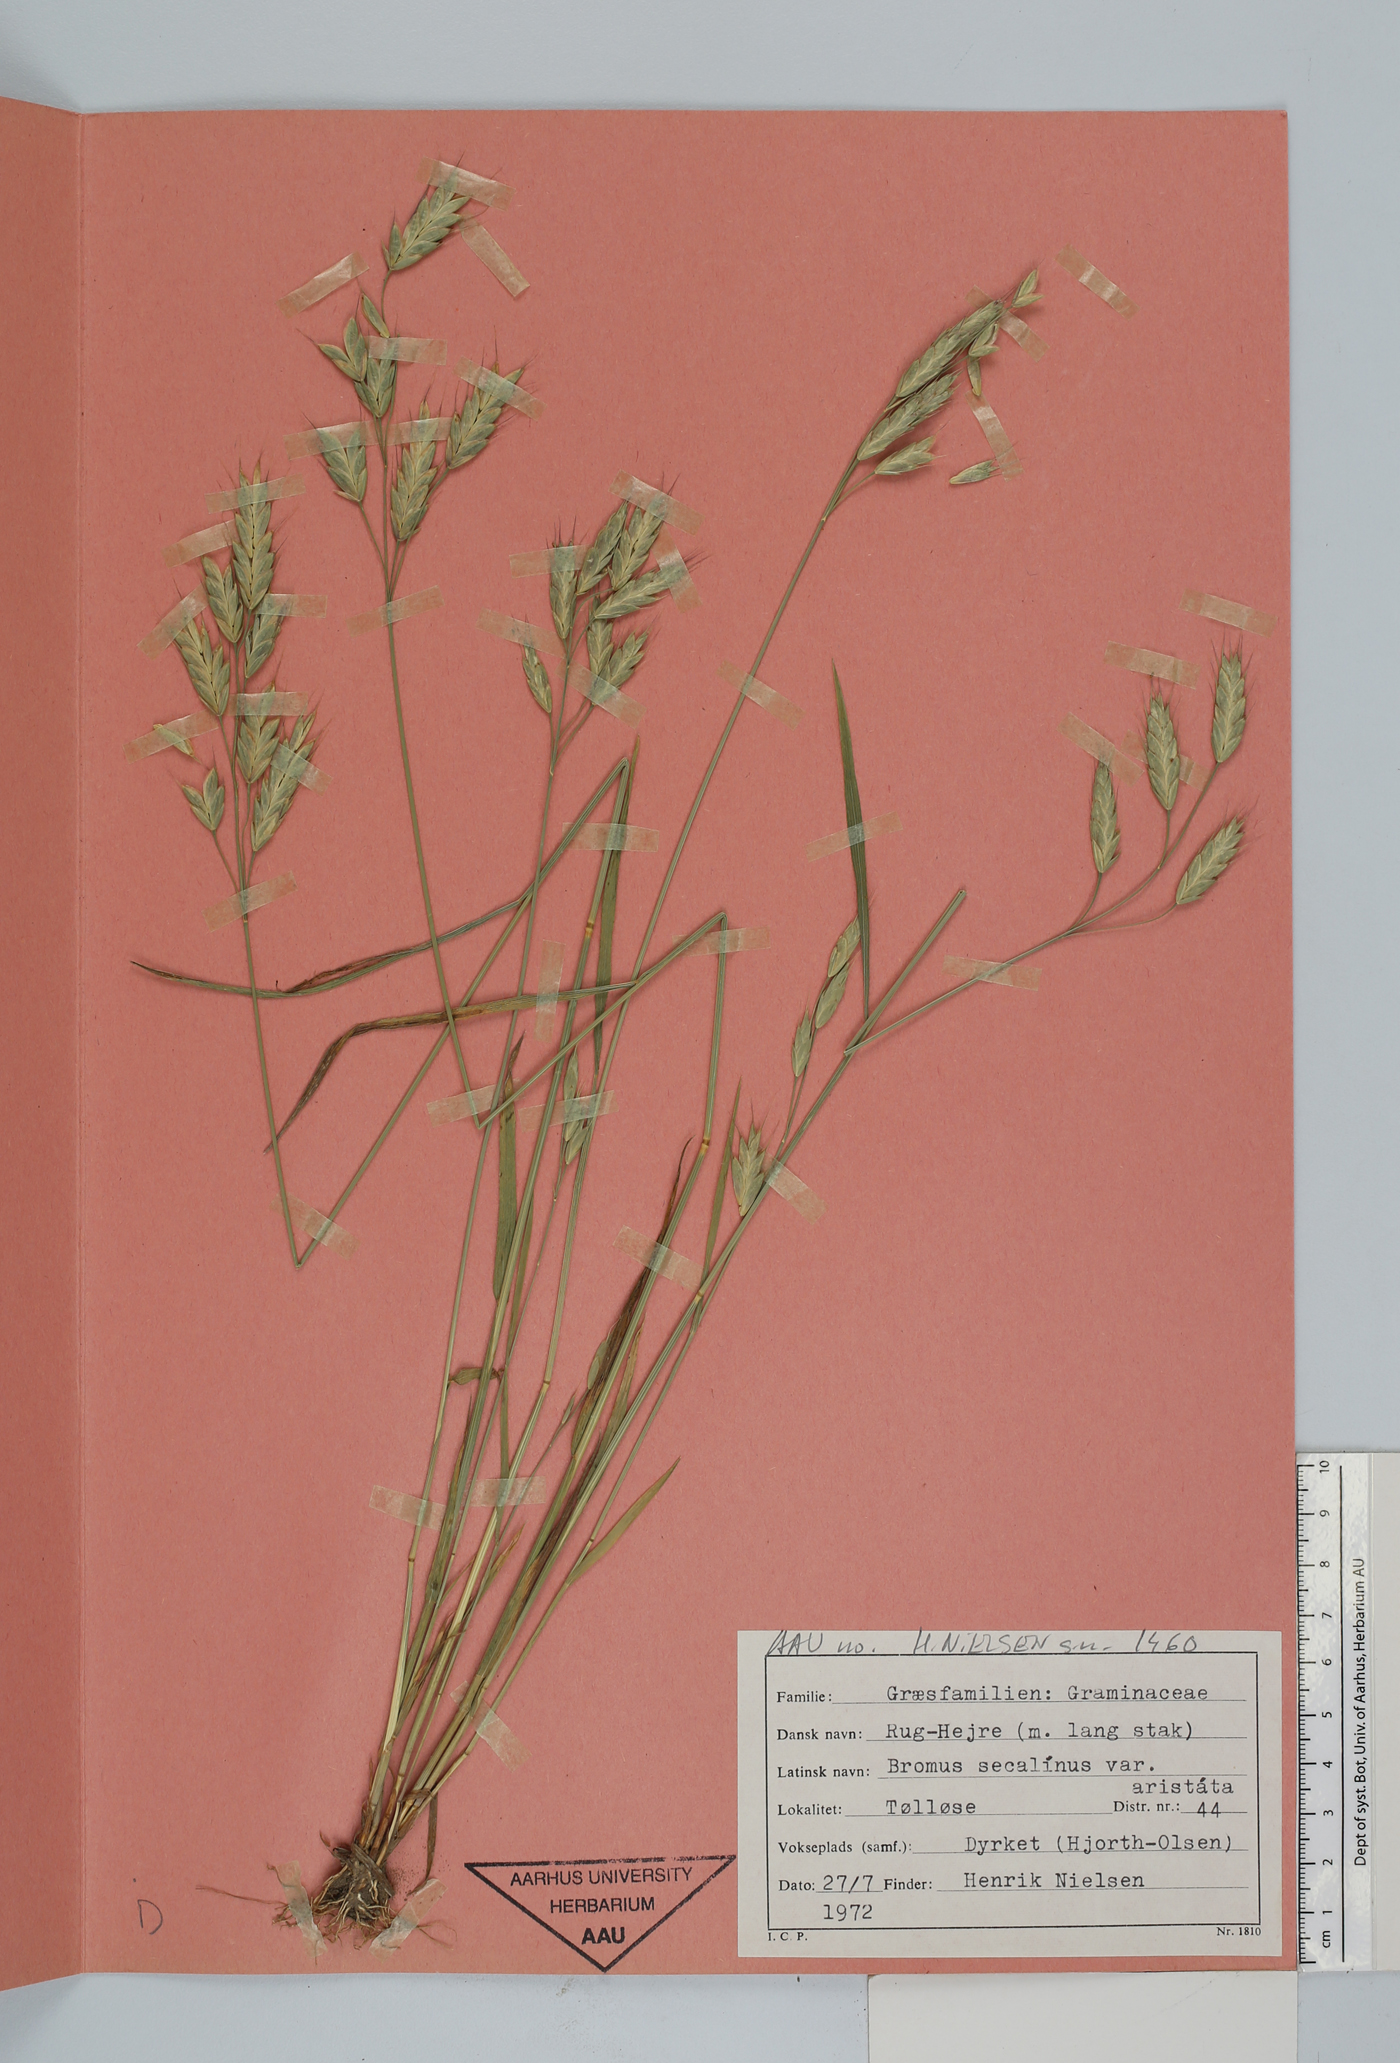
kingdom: Plantae
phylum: Tracheophyta
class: Liliopsida
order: Poales
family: Poaceae
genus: Bromus
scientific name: Bromus secalinus
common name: Rye brome
